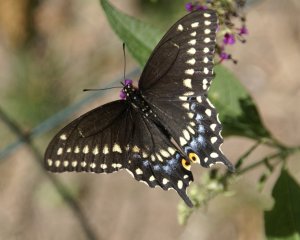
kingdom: Animalia
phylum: Arthropoda
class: Insecta
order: Lepidoptera
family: Papilionidae
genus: Papilio
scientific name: Papilio polyxenes
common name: Black Swallowtail
